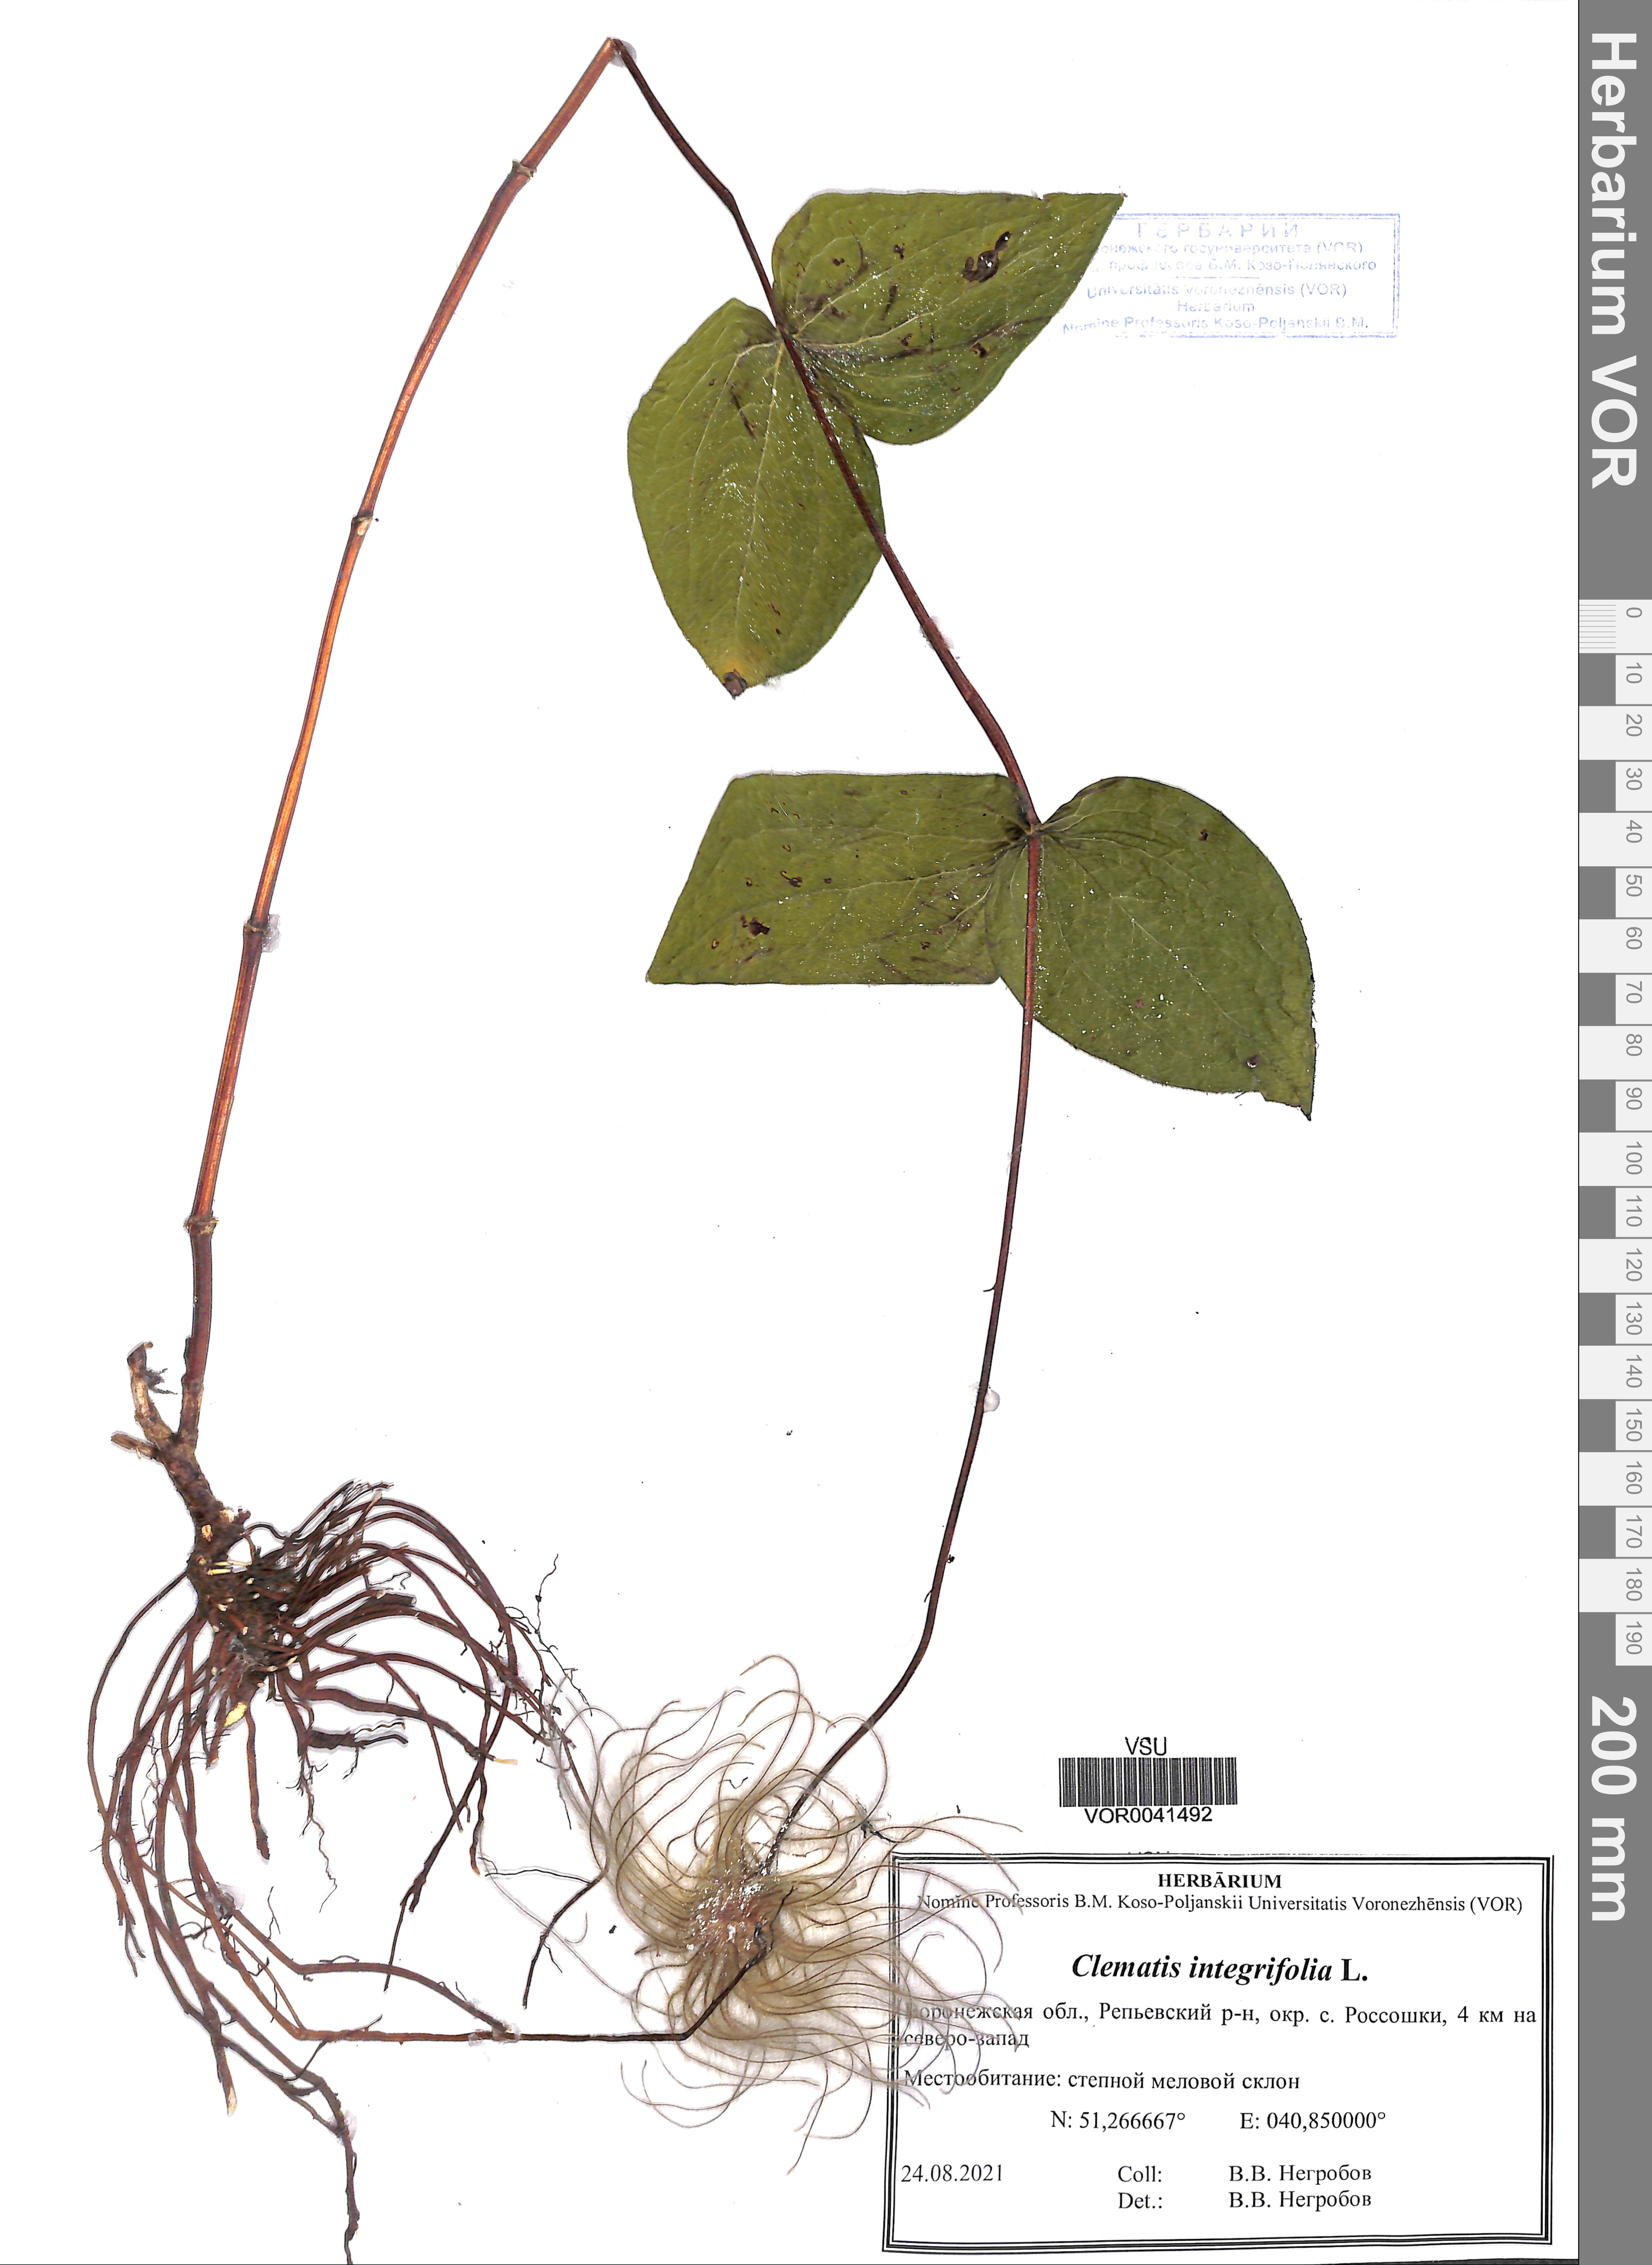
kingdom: Plantae
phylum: Tracheophyta
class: Magnoliopsida
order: Ranunculales
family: Ranunculaceae
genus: Clematis
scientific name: Clematis integrifolia
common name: Solitary clematis
